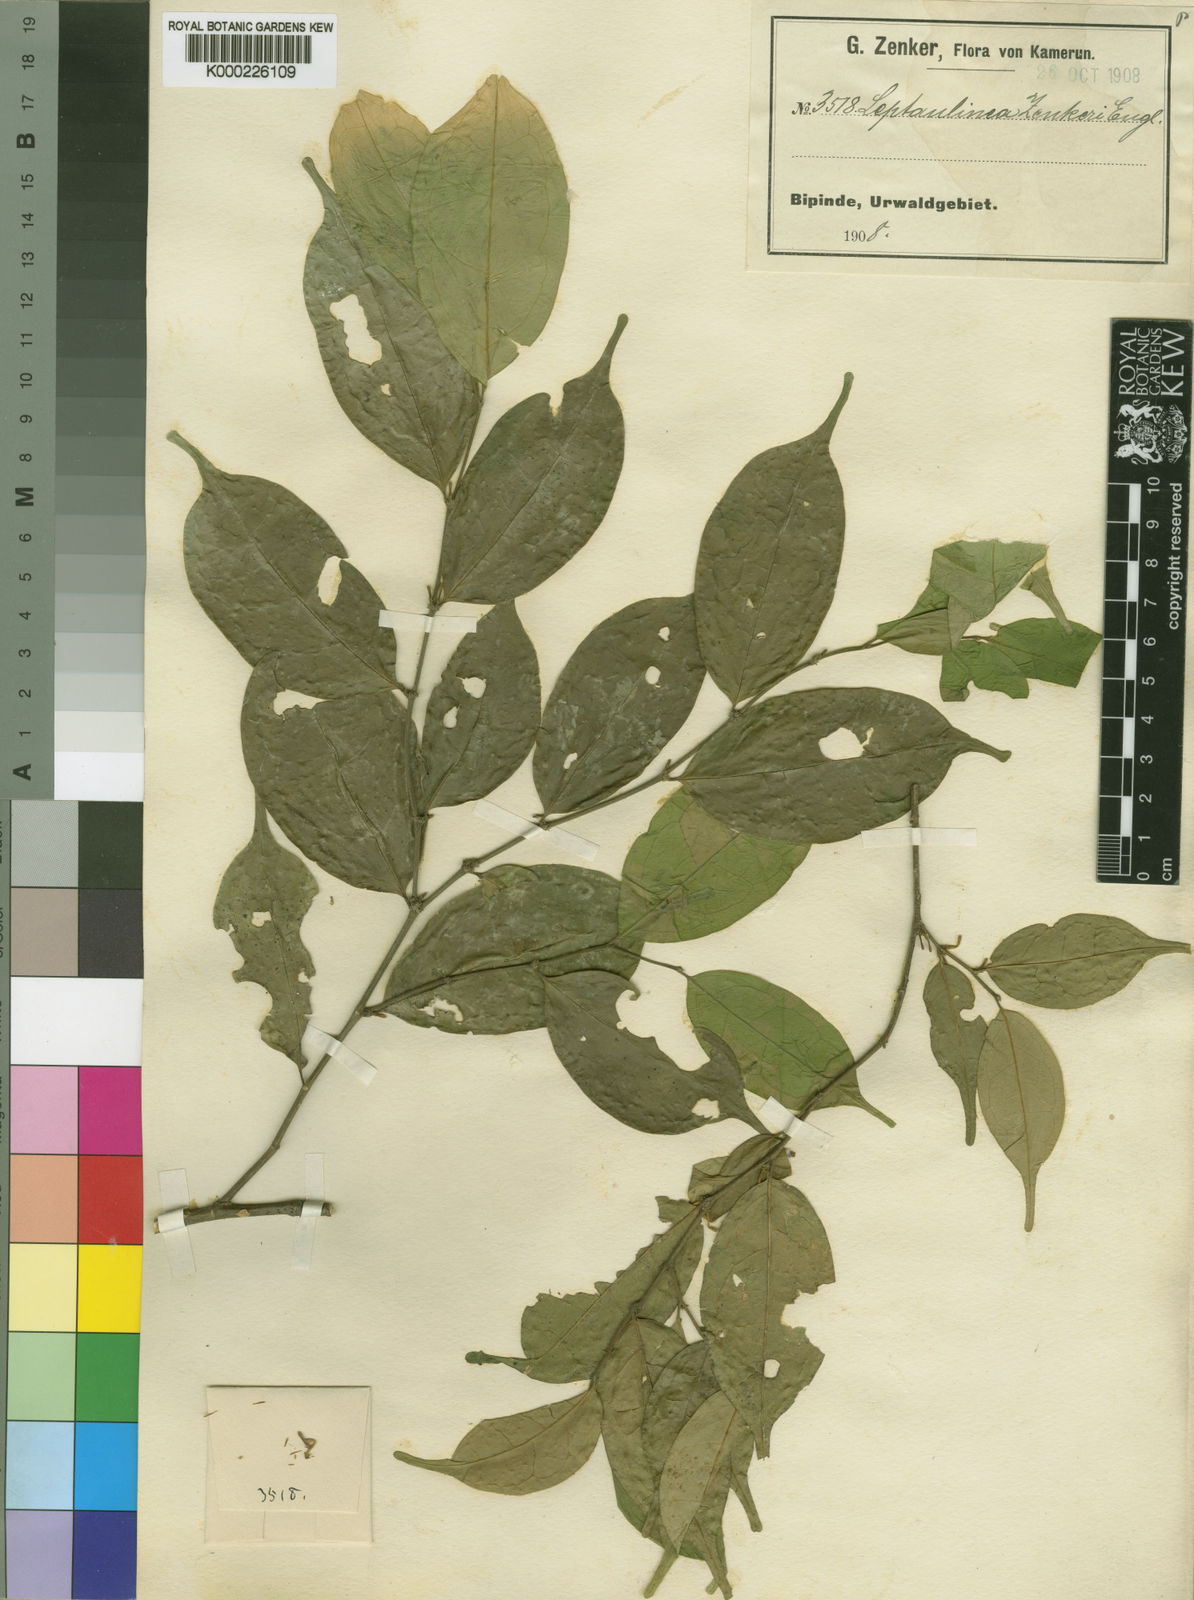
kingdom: Plantae
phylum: Tracheophyta
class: Magnoliopsida
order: Cardiopteridales
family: Cardiopteridaceae
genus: Leptaulus
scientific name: Leptaulus congolanus
